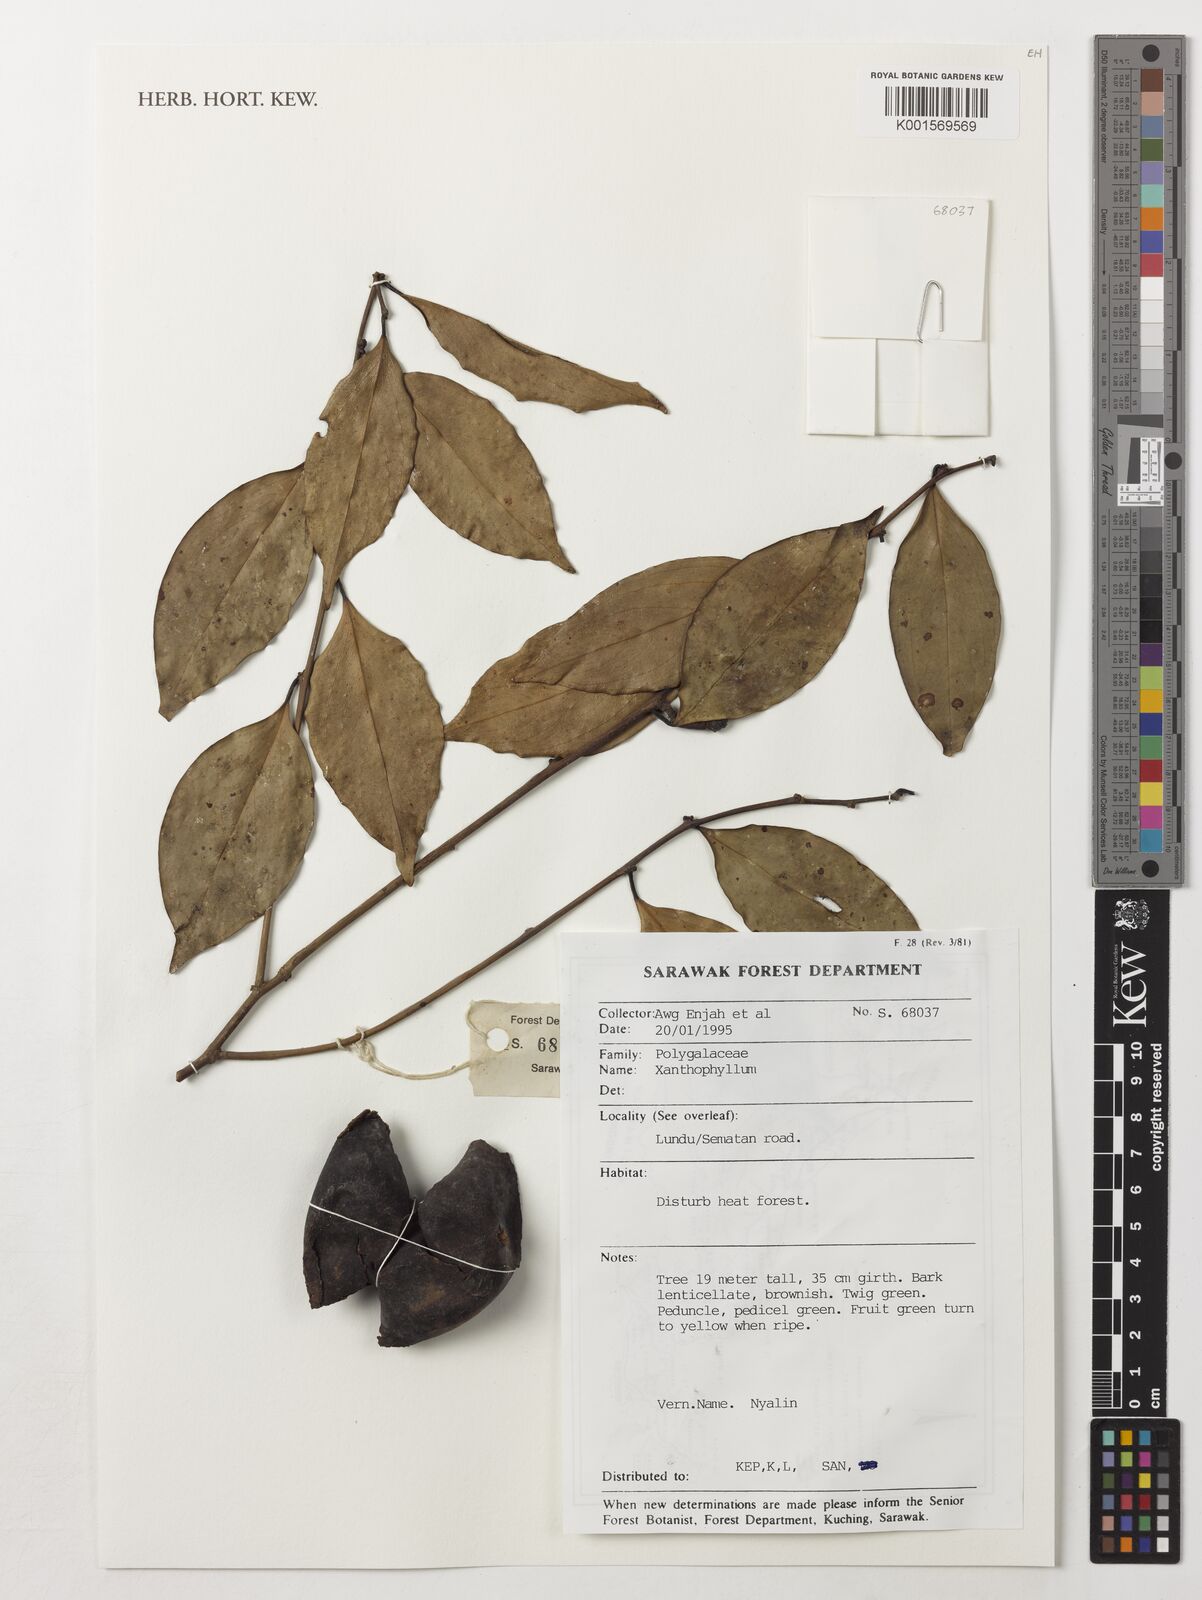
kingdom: Plantae
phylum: Tracheophyta
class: Magnoliopsida
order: Fabales
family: Polygalaceae
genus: Xanthophyllum
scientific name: Xanthophyllum
